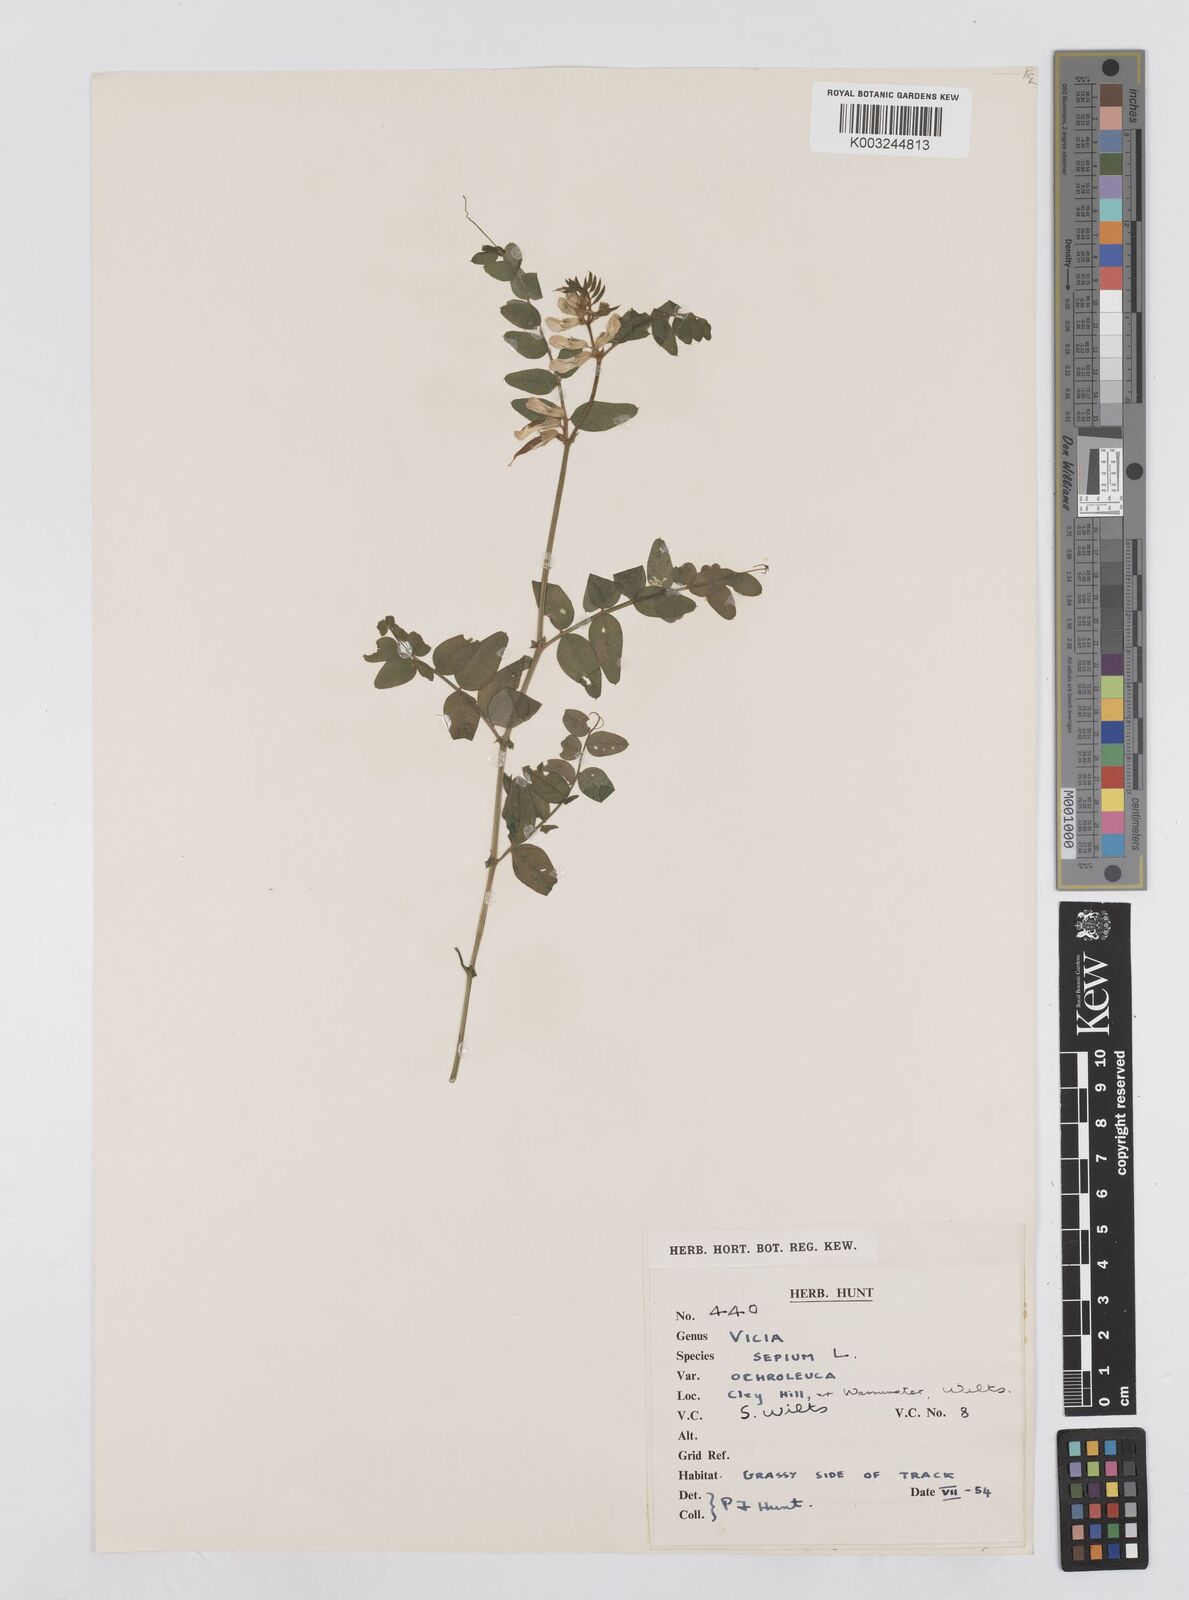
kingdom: Plantae
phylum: Tracheophyta
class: Magnoliopsida
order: Fabales
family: Fabaceae
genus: Vicia
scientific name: Vicia sepium
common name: Bush vetch
